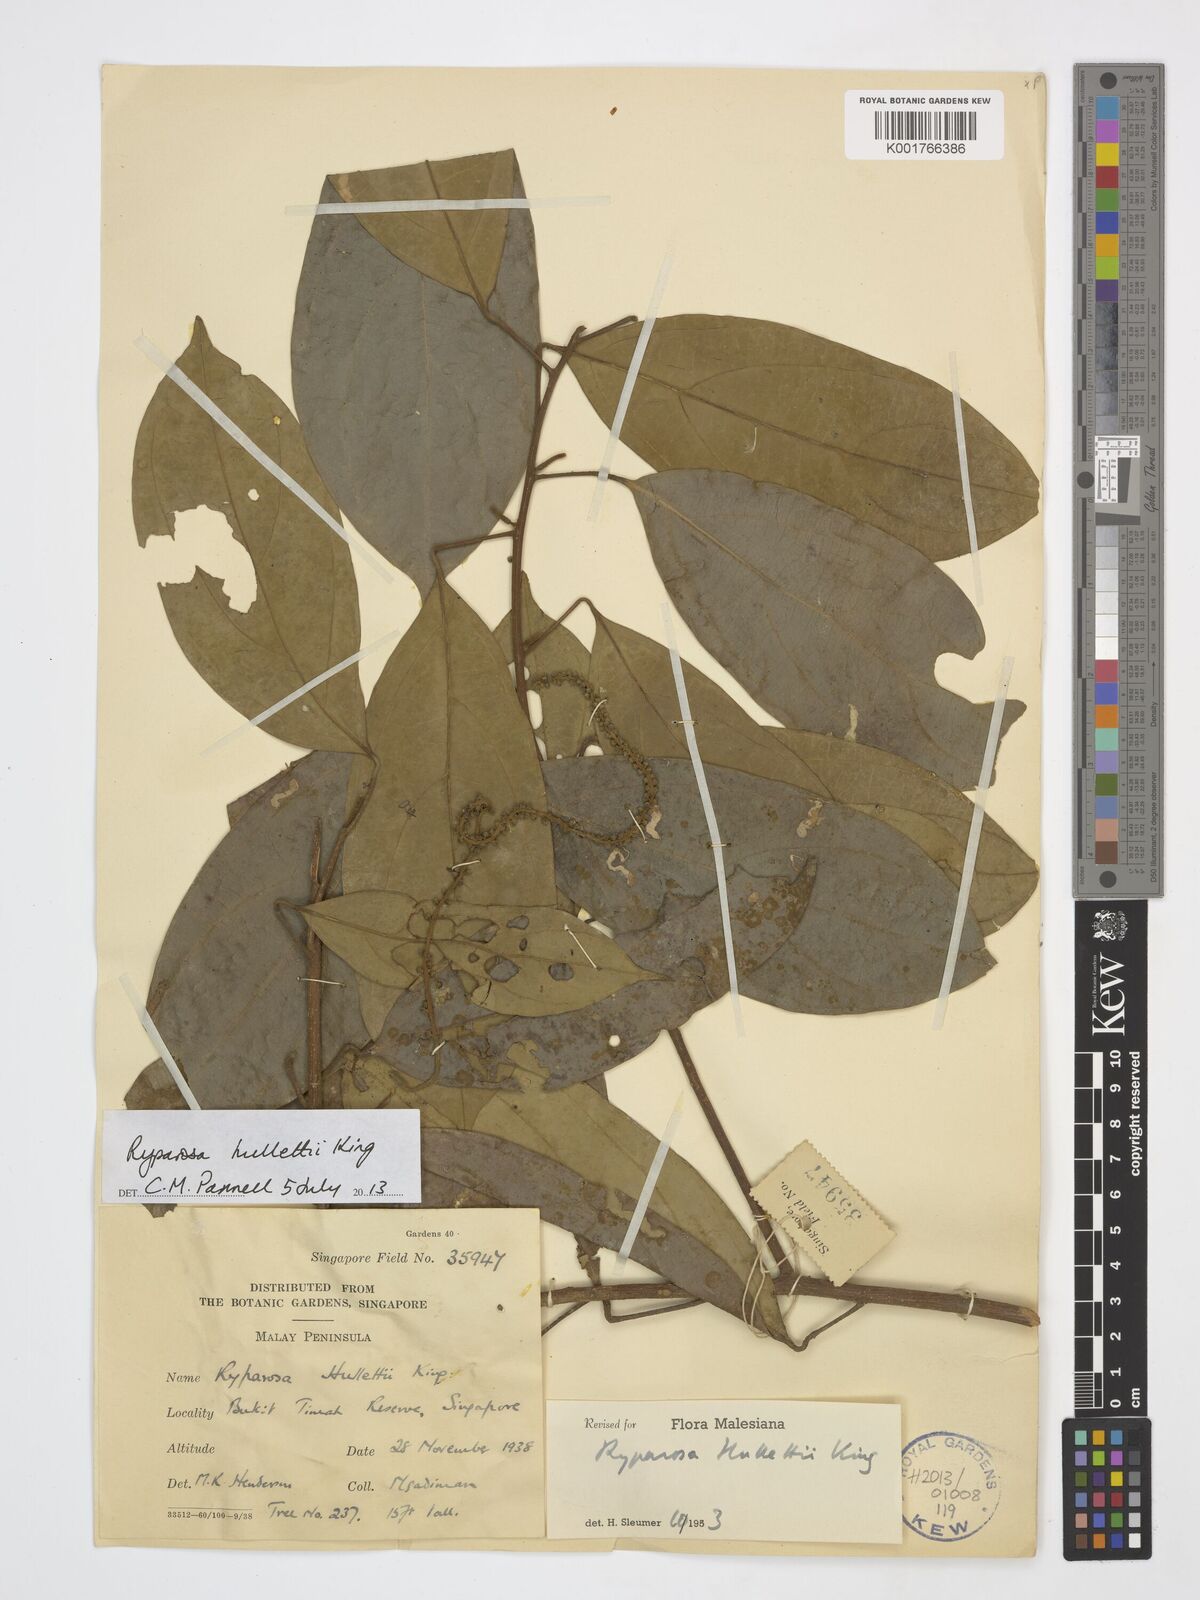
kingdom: Plantae
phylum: Tracheophyta
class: Magnoliopsida
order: Malpighiales
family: Achariaceae
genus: Ryparosa
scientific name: Ryparosa hullettii
